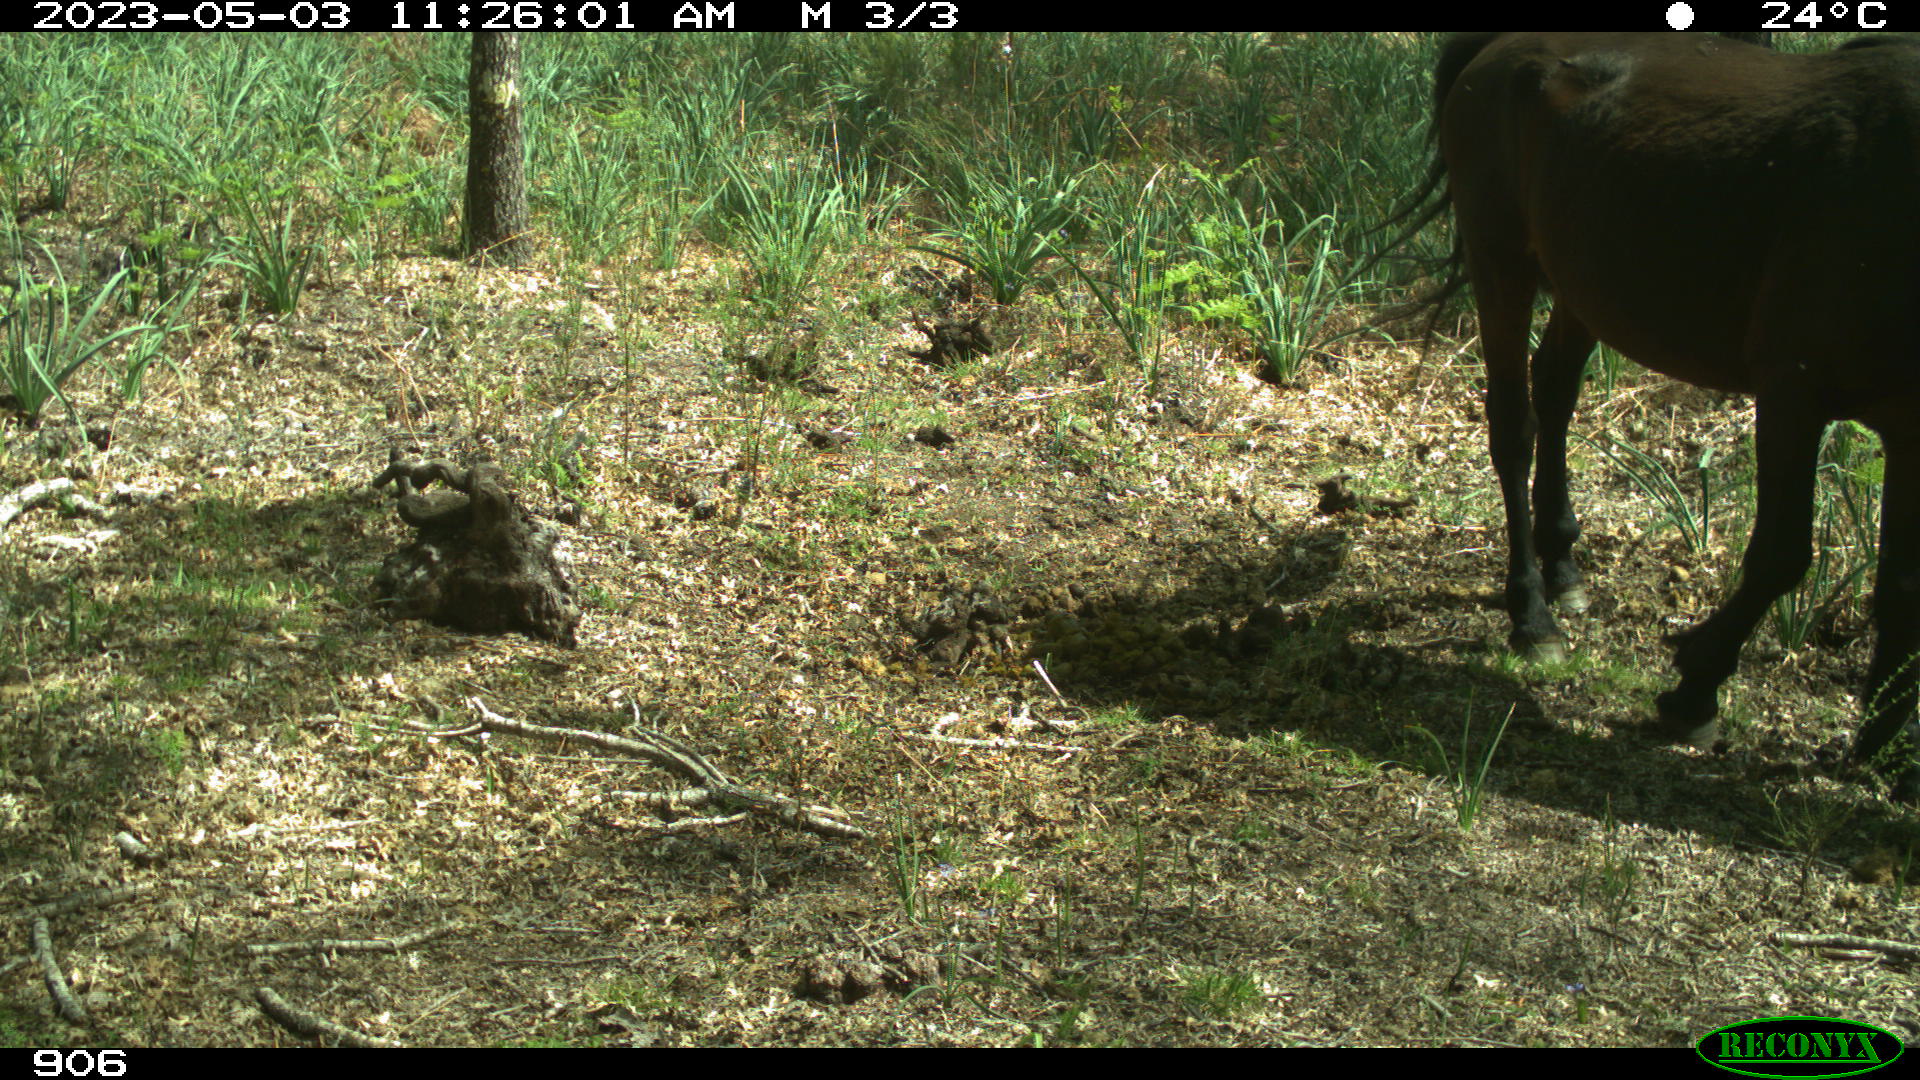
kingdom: Animalia
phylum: Chordata
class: Mammalia
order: Perissodactyla
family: Equidae
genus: Equus
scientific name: Equus caballus
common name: Horse
